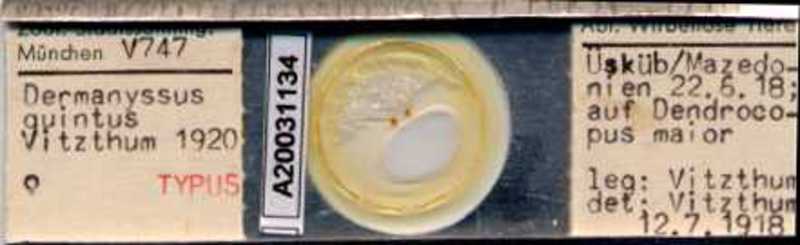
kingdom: Animalia
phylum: Arthropoda
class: Arachnida
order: Mesostigmata
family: Dermanyssidae
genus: Dermanyssus
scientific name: Dermanyssus quintus
